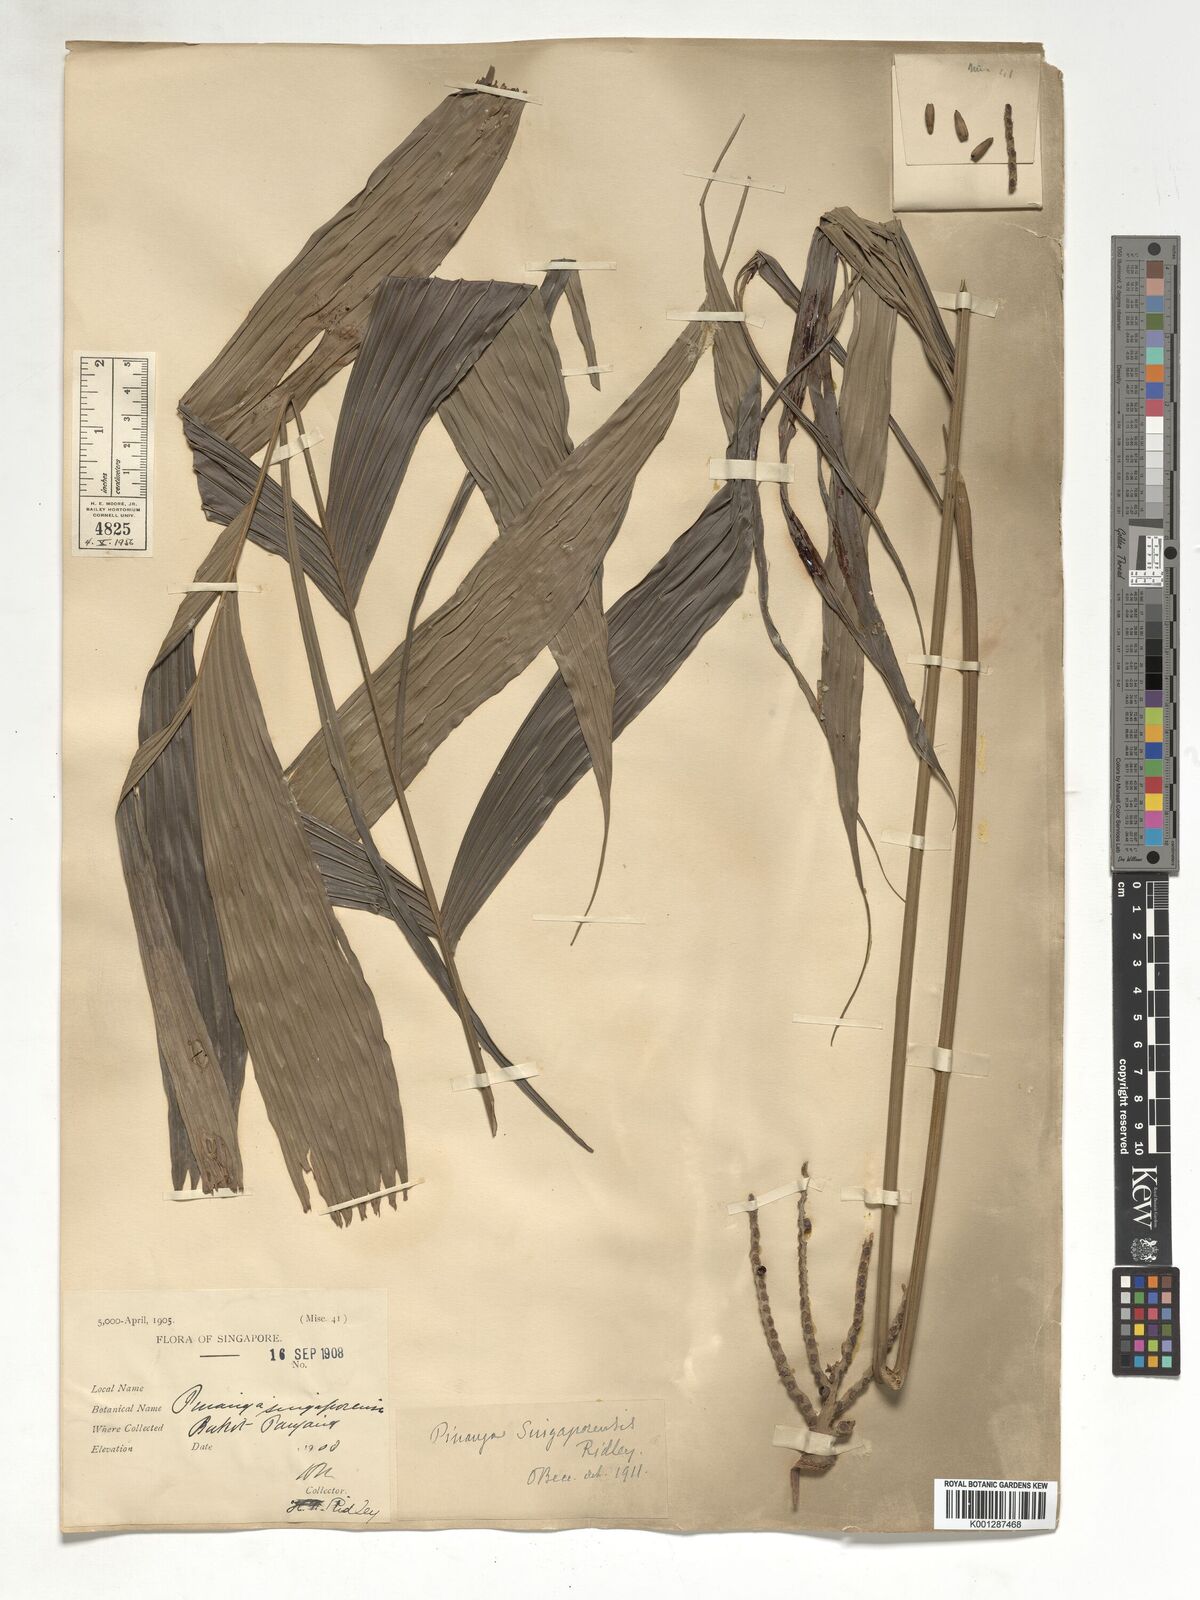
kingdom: Plantae
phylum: Tracheophyta
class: Liliopsida
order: Arecales
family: Arecaceae
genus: Pinanga
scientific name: Pinanga singaporensis
